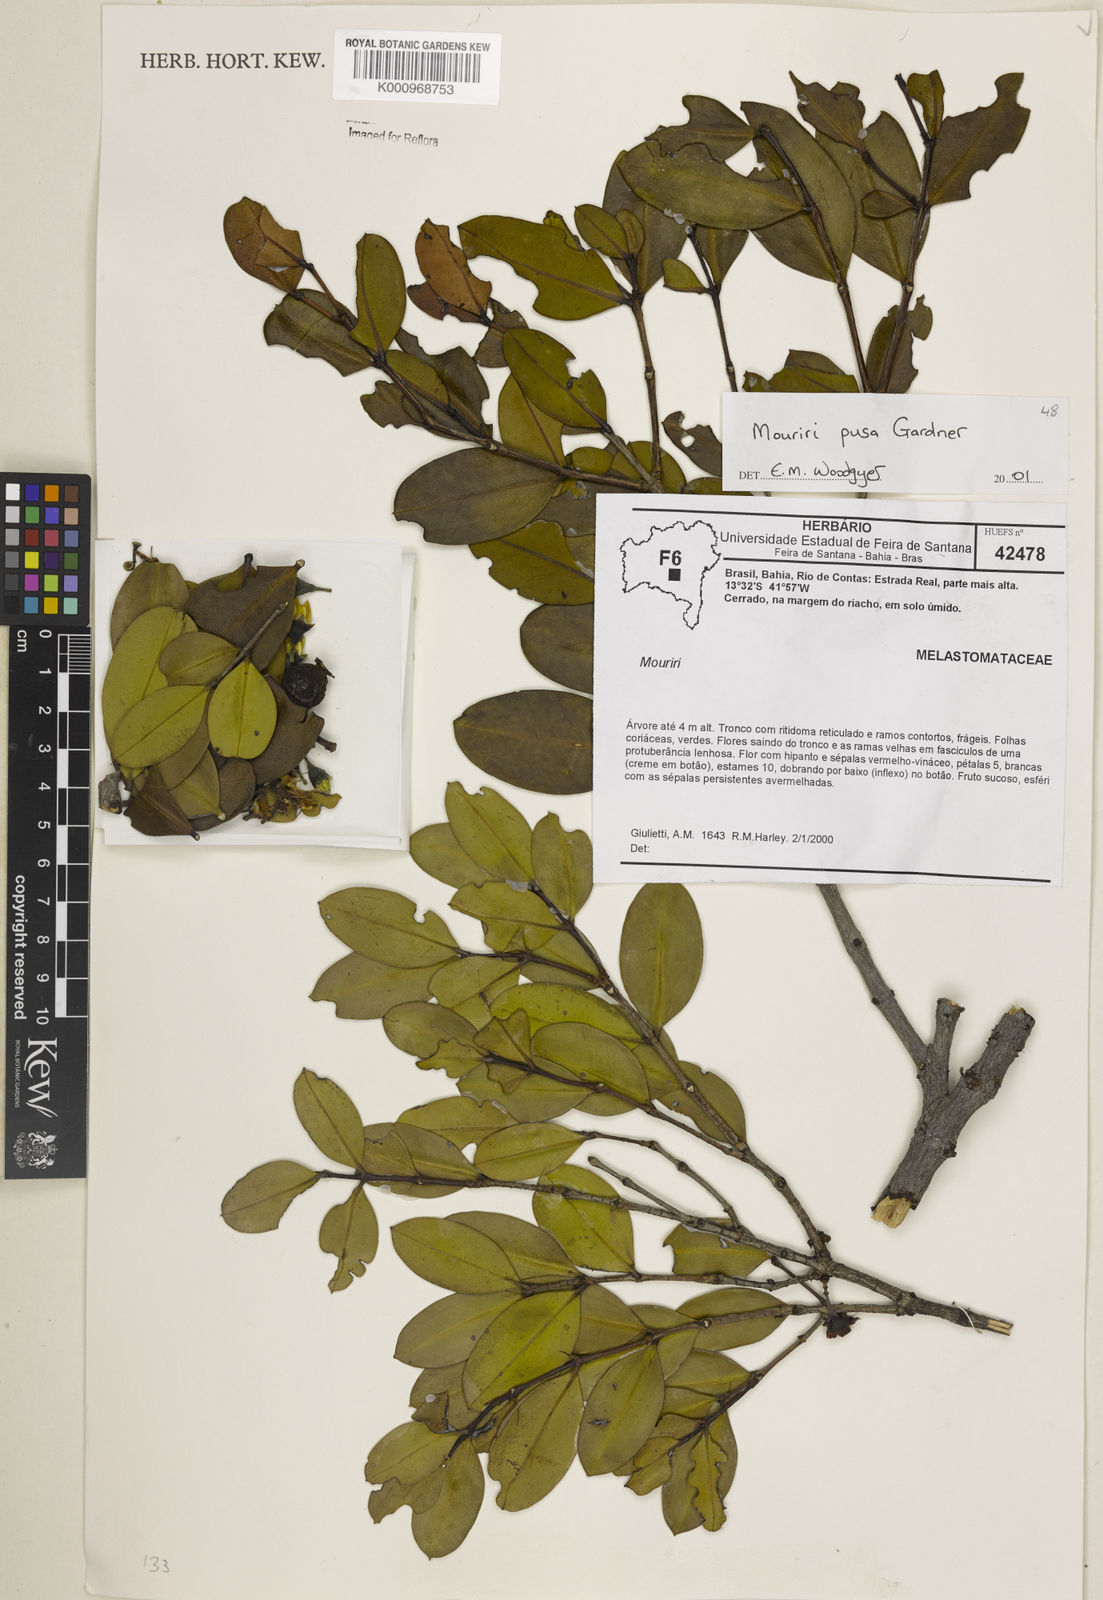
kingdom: Plantae
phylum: Tracheophyta
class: Magnoliopsida
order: Myrtales
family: Melastomataceae
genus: Mouriri
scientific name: Mouriri pusa
